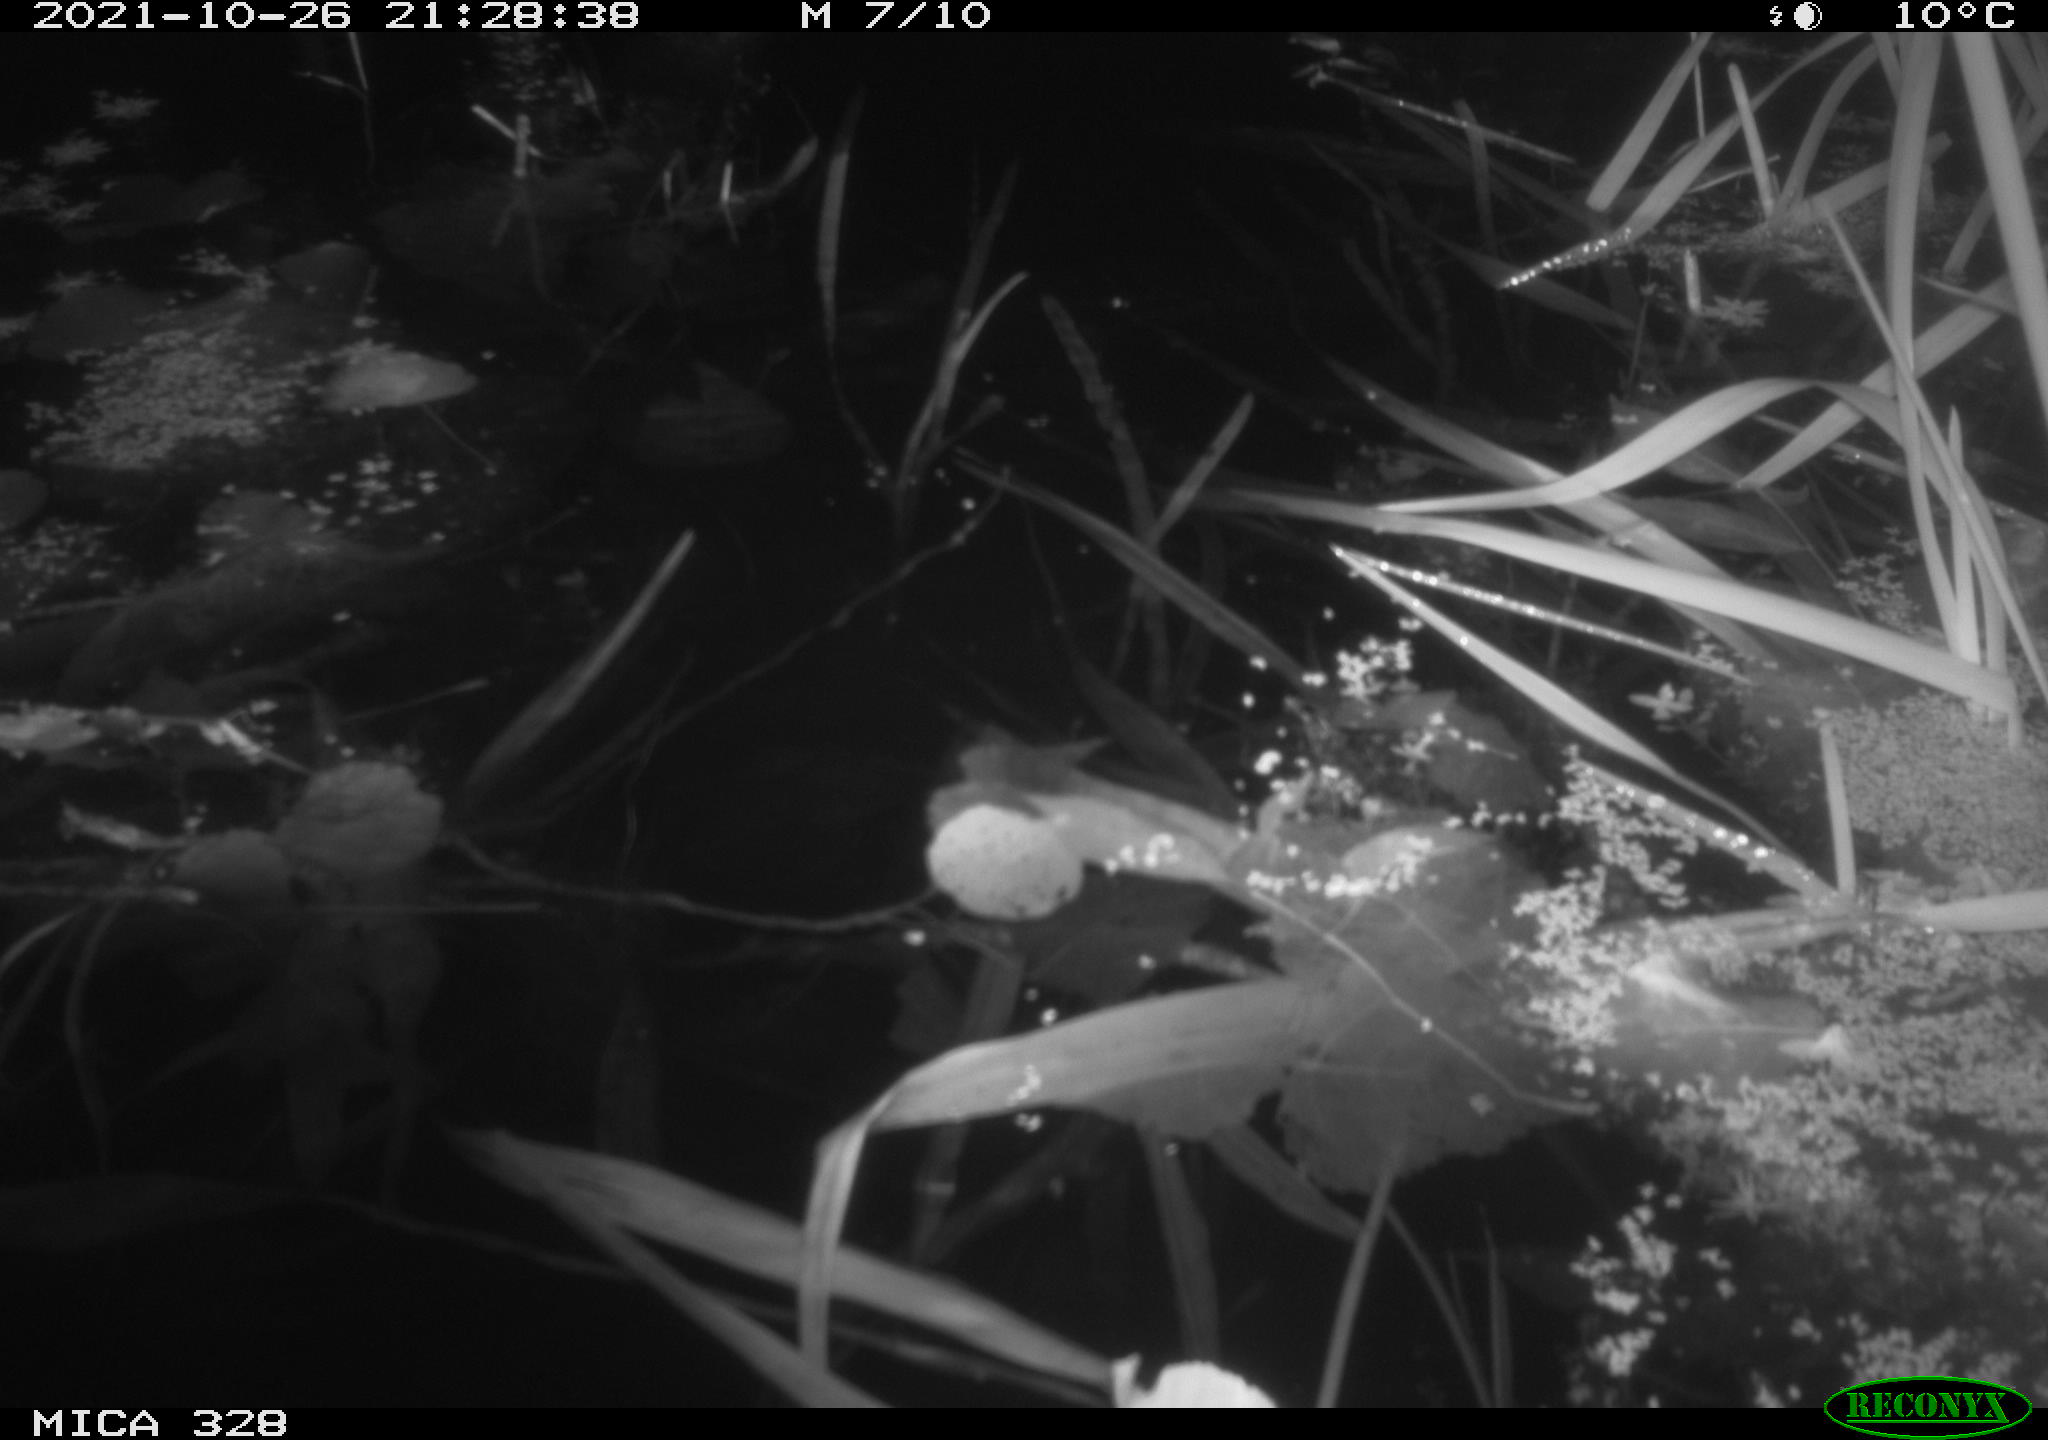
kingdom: Animalia
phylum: Chordata
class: Mammalia
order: Rodentia
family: Cricetidae
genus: Ondatra
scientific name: Ondatra zibethicus
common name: Muskrat
